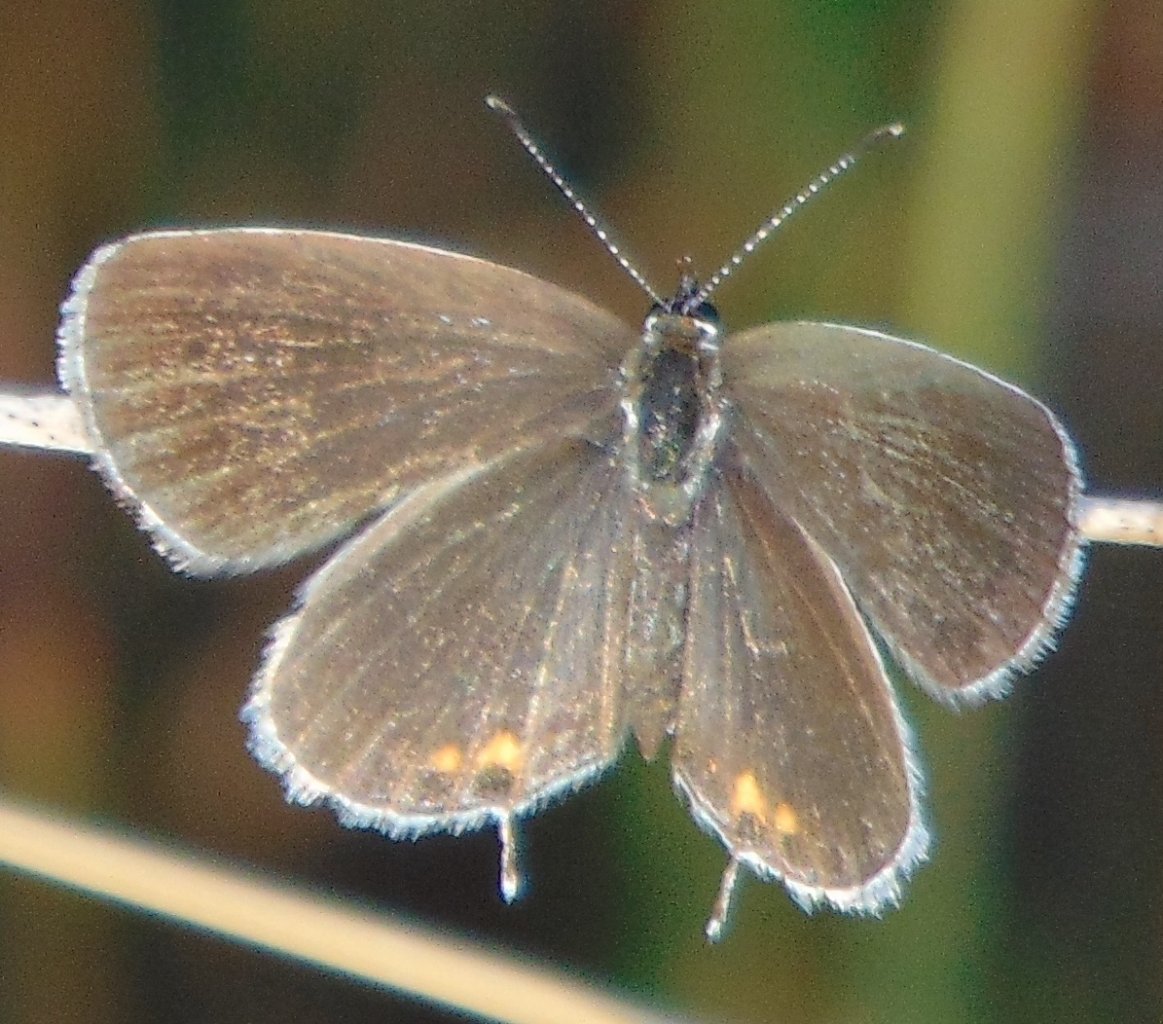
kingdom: Animalia
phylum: Arthropoda
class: Insecta
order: Lepidoptera
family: Lycaenidae
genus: Elkalyce
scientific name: Elkalyce comyntas
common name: Eastern Tailed-Blue
